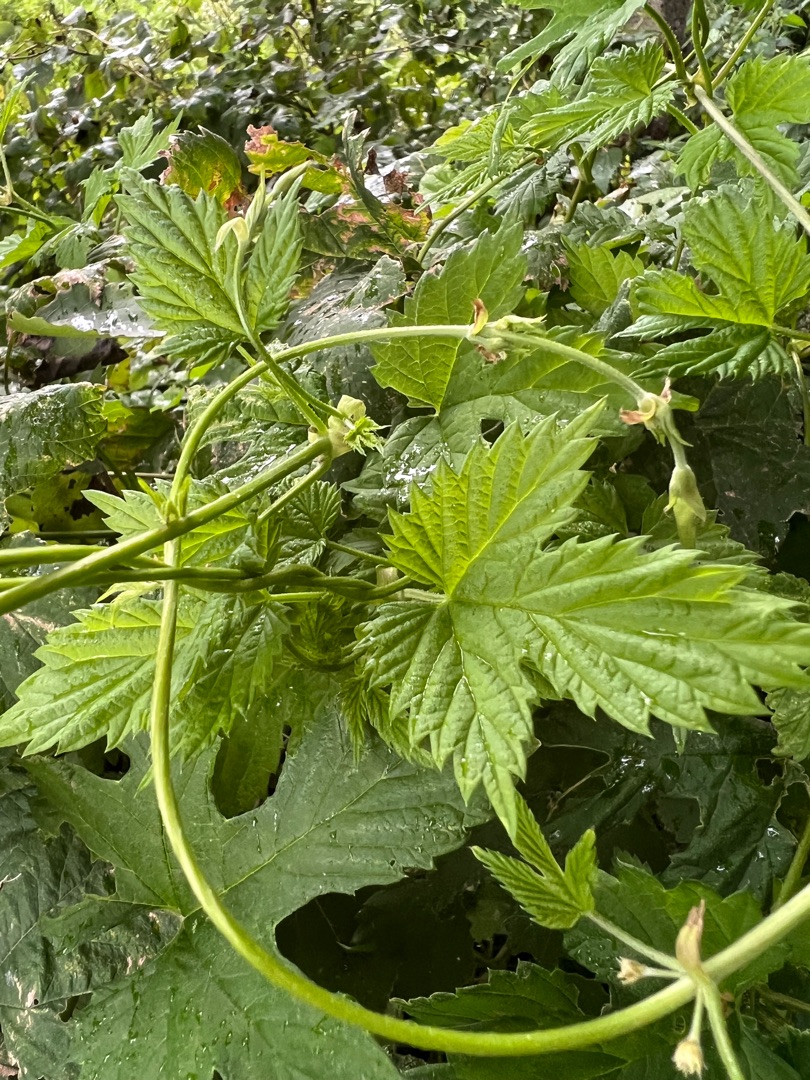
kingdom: Plantae
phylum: Tracheophyta
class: Magnoliopsida
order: Rosales
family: Cannabaceae
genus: Humulus
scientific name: Humulus lupulus
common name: Humle
